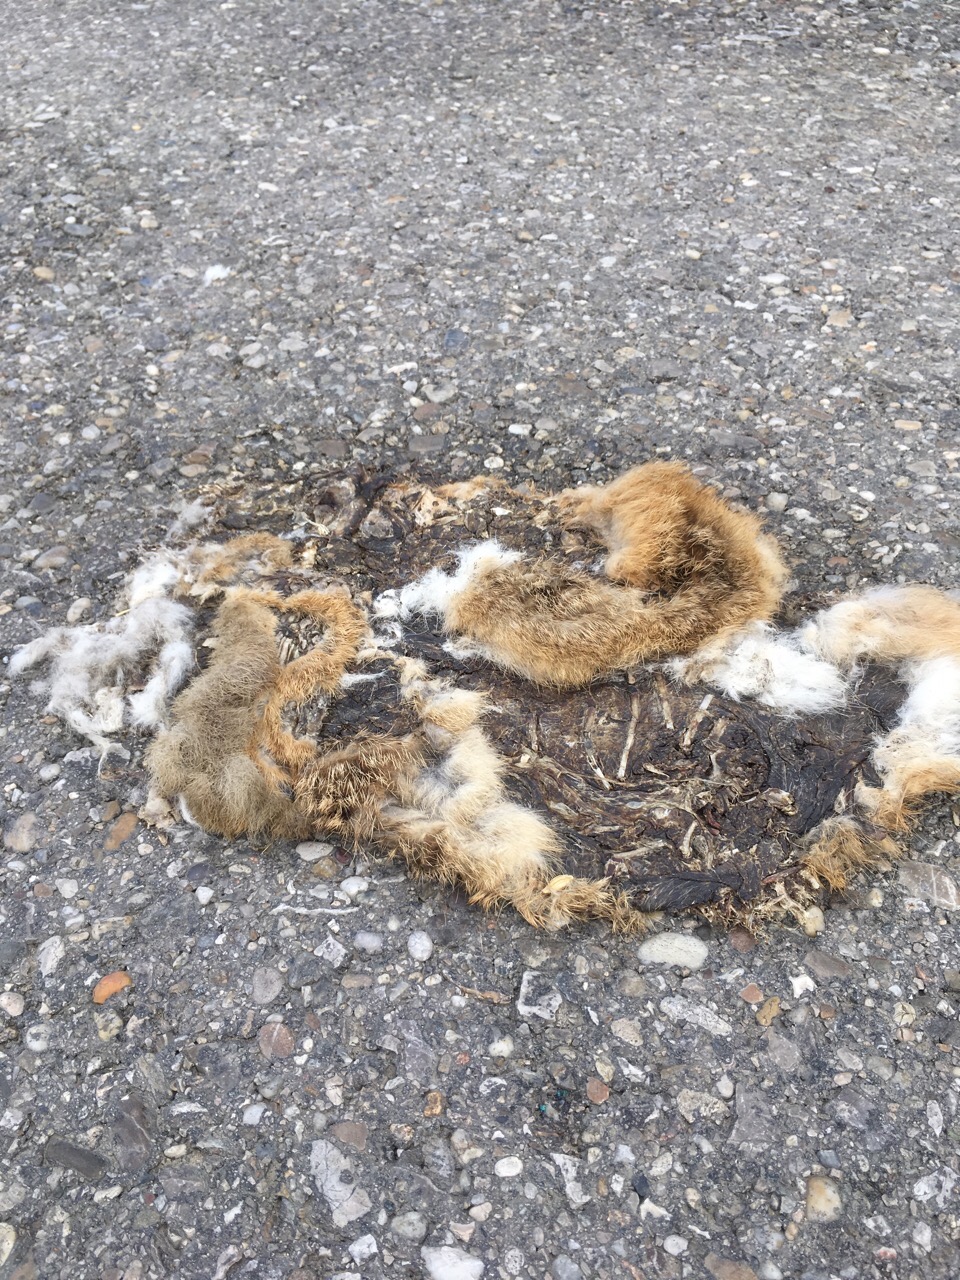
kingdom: Animalia
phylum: Chordata
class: Mammalia
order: Lagomorpha
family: Leporidae
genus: Lepus
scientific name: Lepus europaeus
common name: European hare
